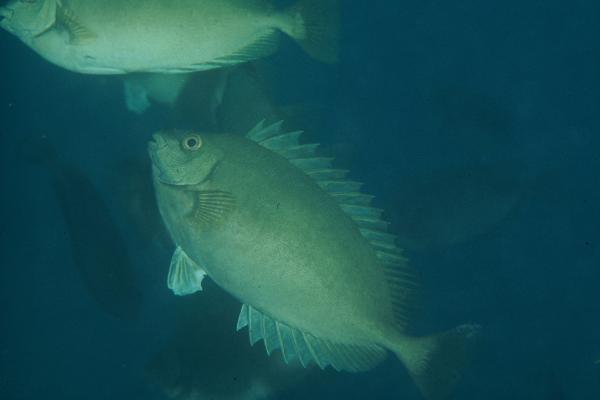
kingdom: Animalia
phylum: Chordata
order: Perciformes
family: Siganidae
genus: Siganus
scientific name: Siganus luridus
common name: Dusky spinefoot
